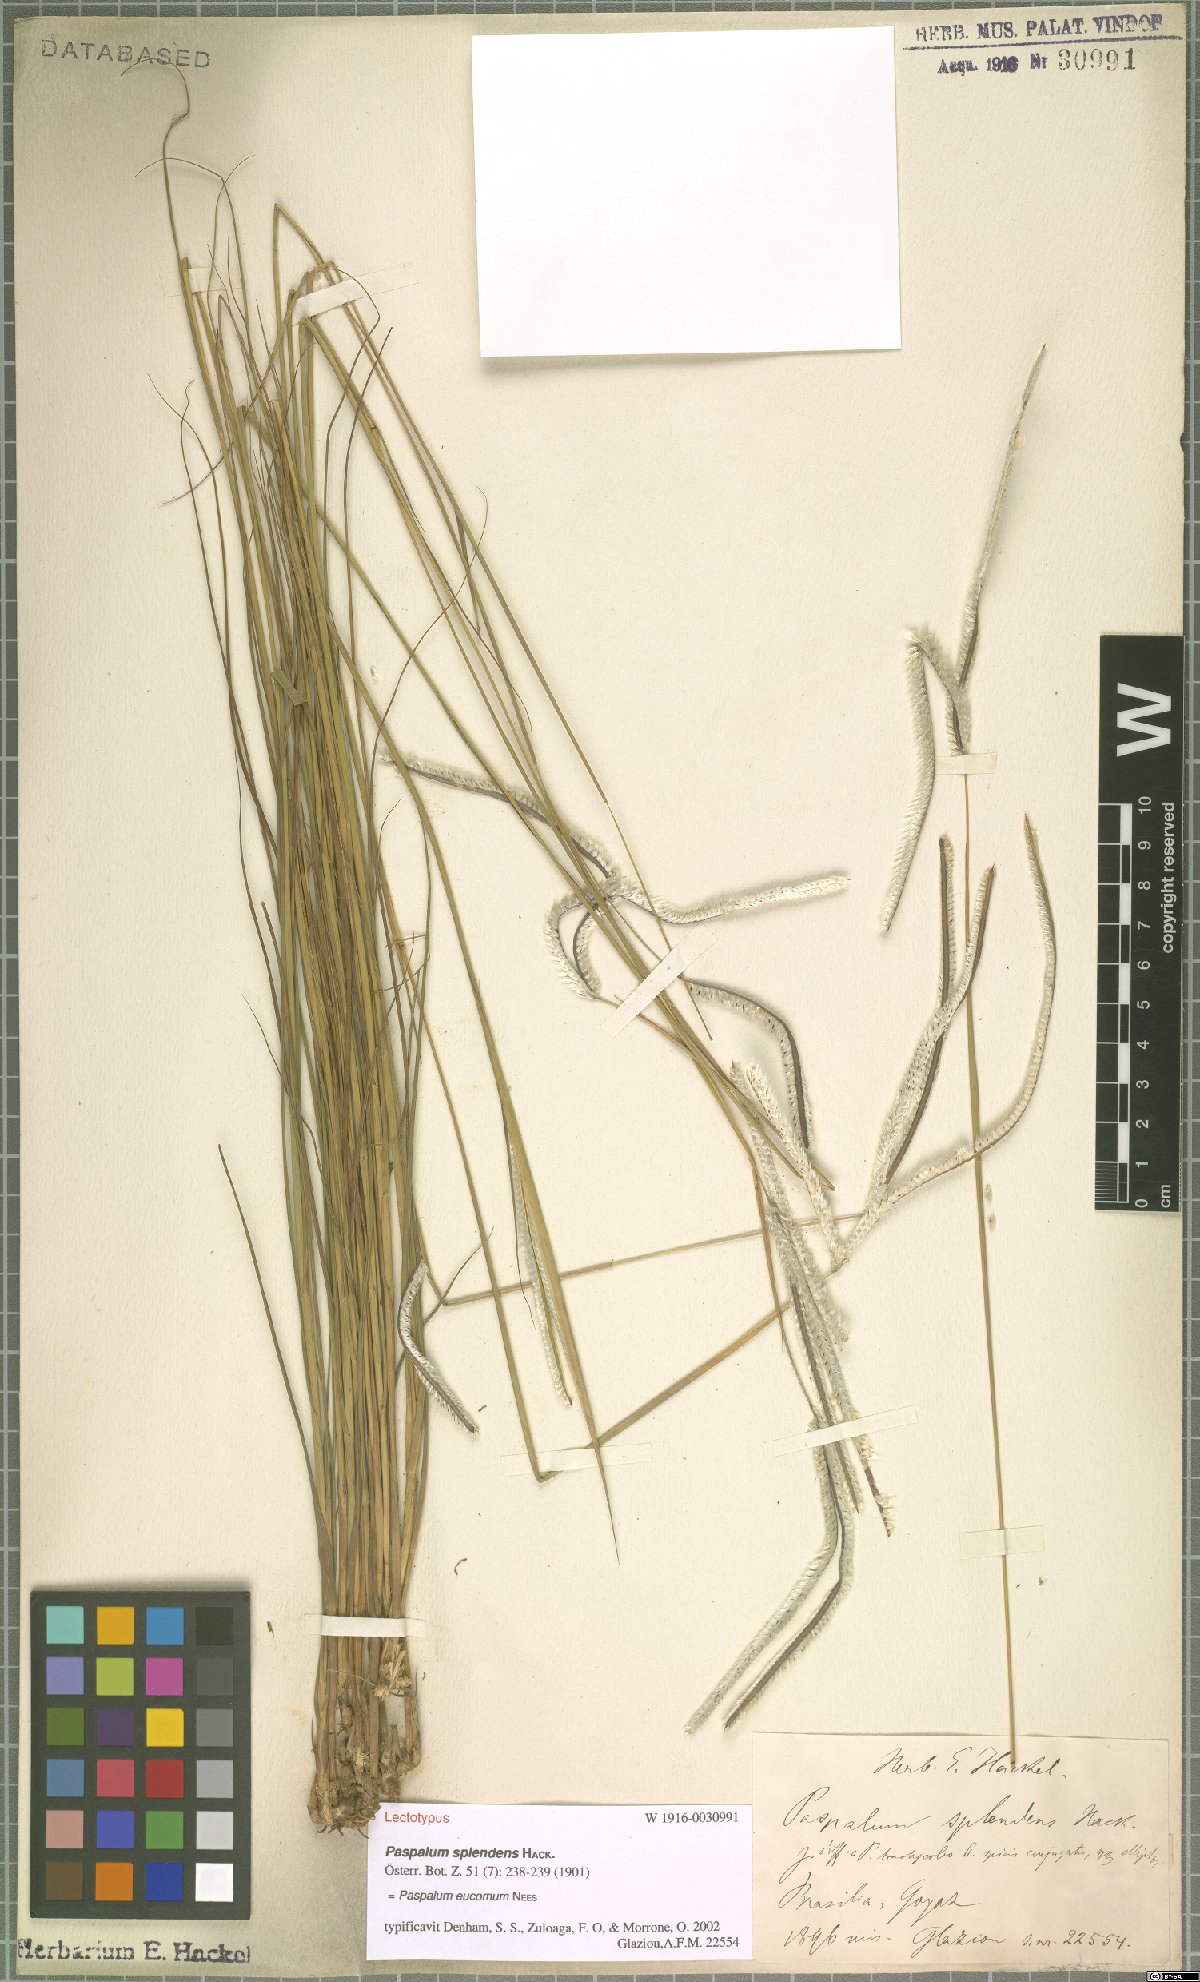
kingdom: Plantae
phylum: Tracheophyta
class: Liliopsida
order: Poales
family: Poaceae
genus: Paspalum
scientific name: Paspalum eucomum
